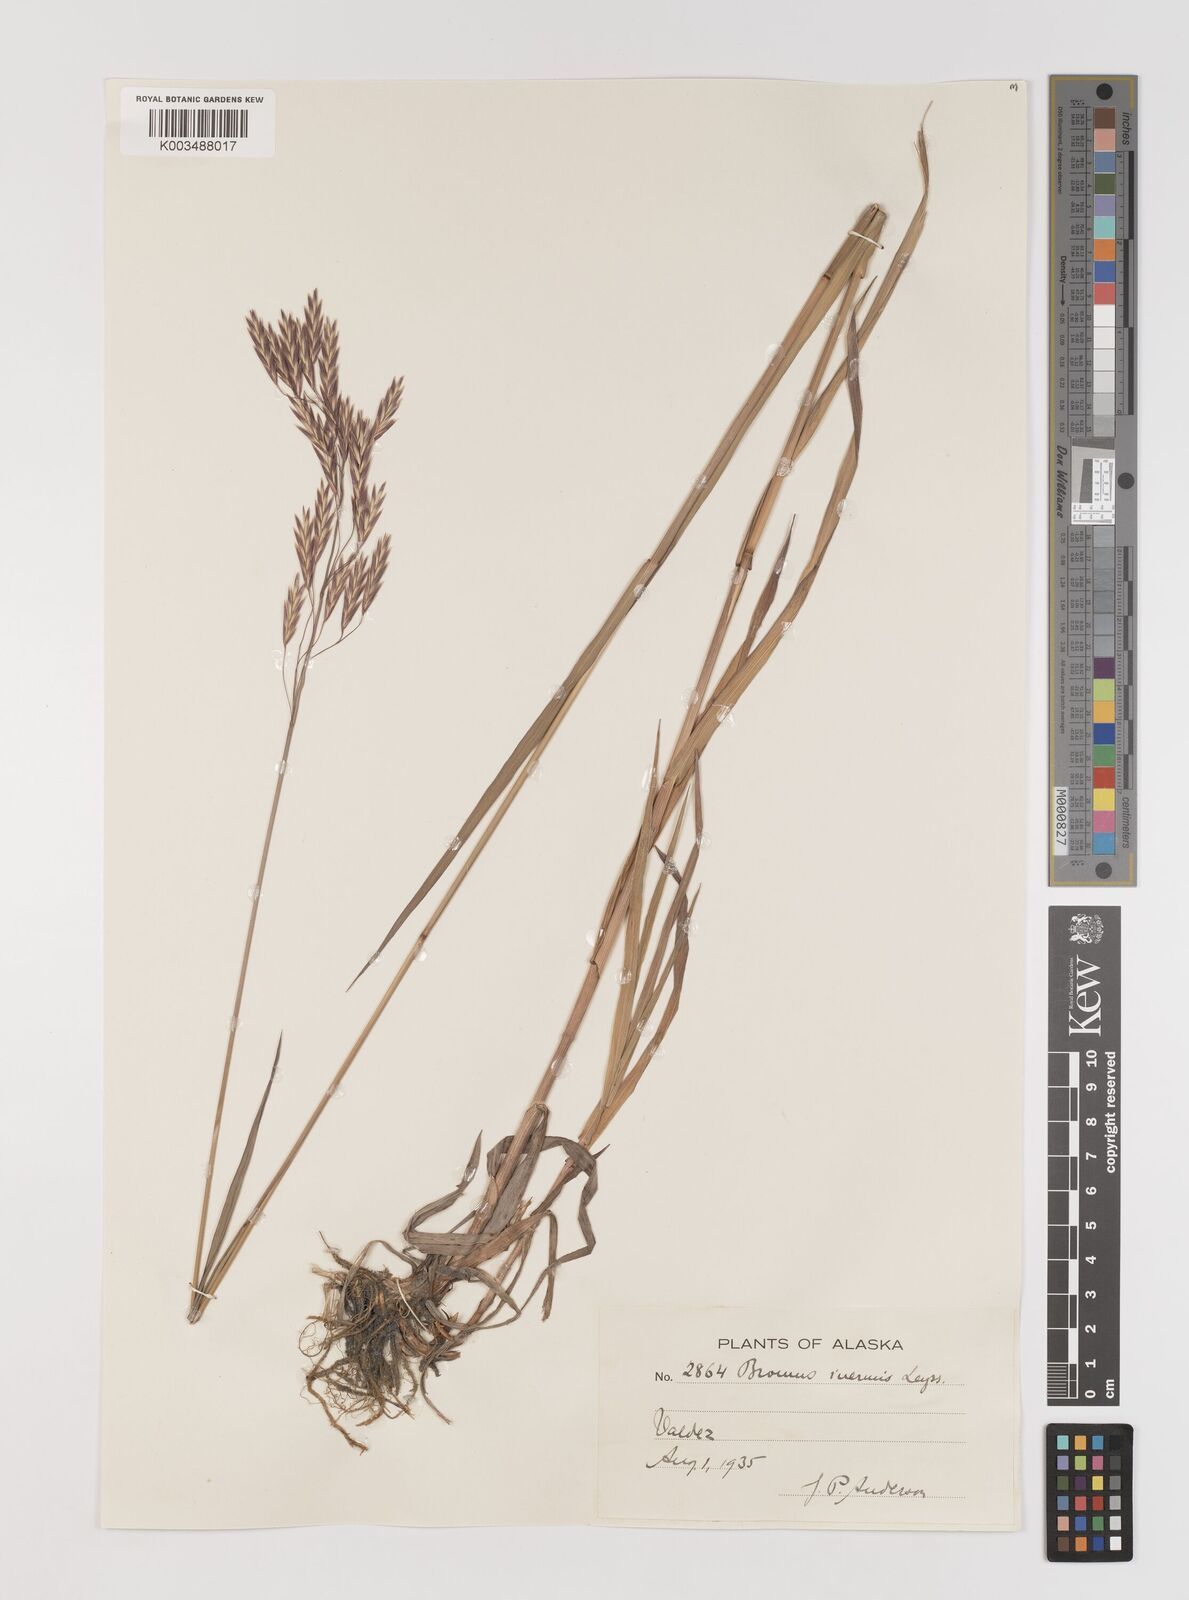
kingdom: Plantae
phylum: Tracheophyta
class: Liliopsida
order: Poales
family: Poaceae
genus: Bromus
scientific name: Bromus inermis
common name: Smooth brome
